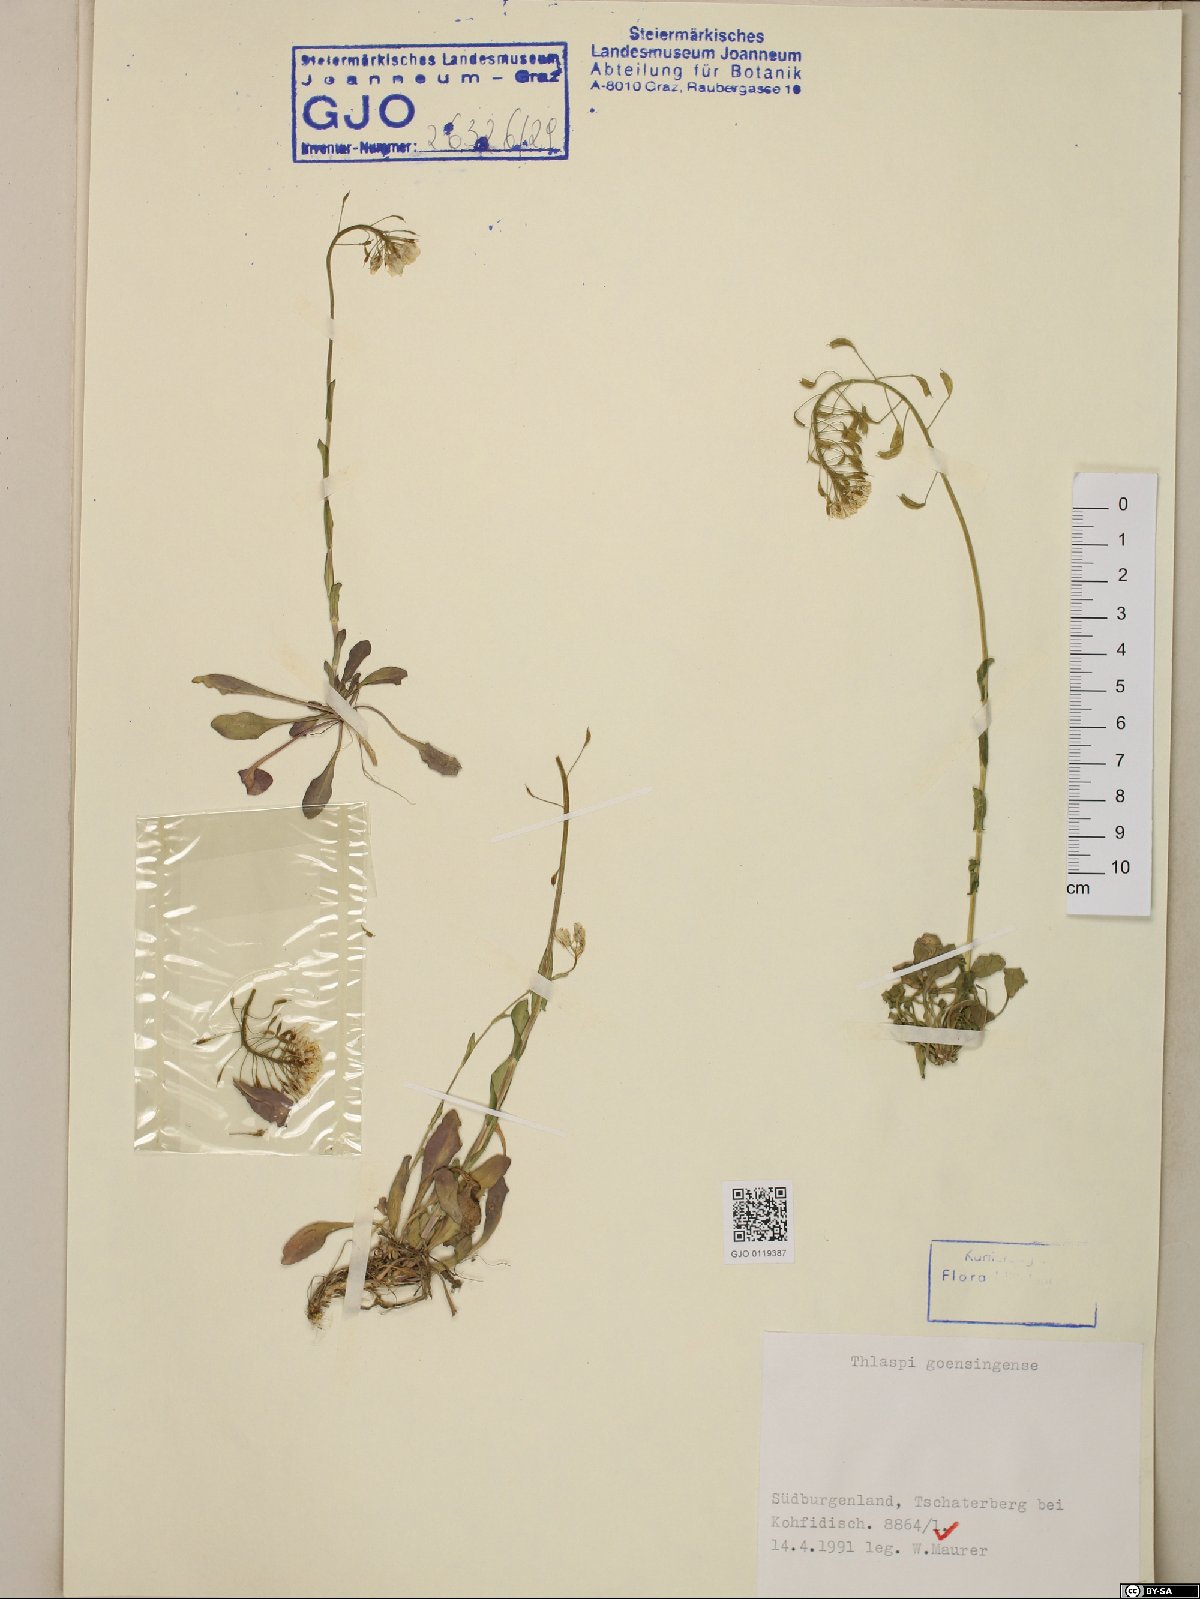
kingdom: Plantae
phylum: Tracheophyta
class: Magnoliopsida
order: Brassicales
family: Brassicaceae
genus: Noccaea
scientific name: Noccaea goesingensis
